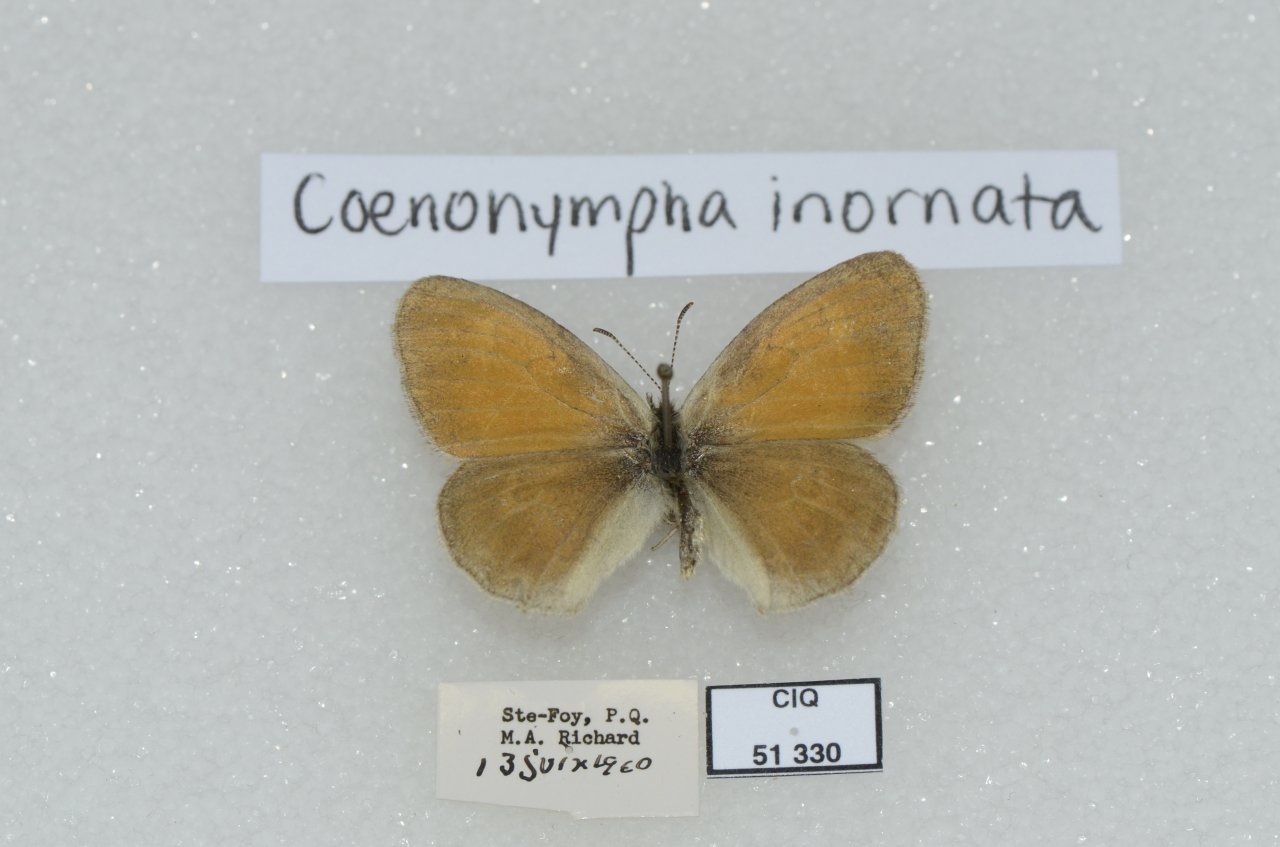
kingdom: Animalia
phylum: Arthropoda
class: Insecta
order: Lepidoptera
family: Nymphalidae
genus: Coenonympha
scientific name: Coenonympha tullia
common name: Large Heath
